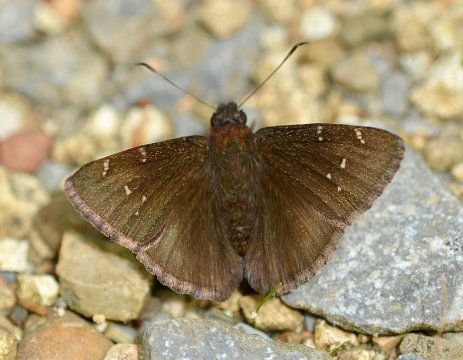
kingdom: Animalia
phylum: Arthropoda
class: Insecta
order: Lepidoptera
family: Hesperiidae
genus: Autochton
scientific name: Autochton
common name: Northern Cloudywing
